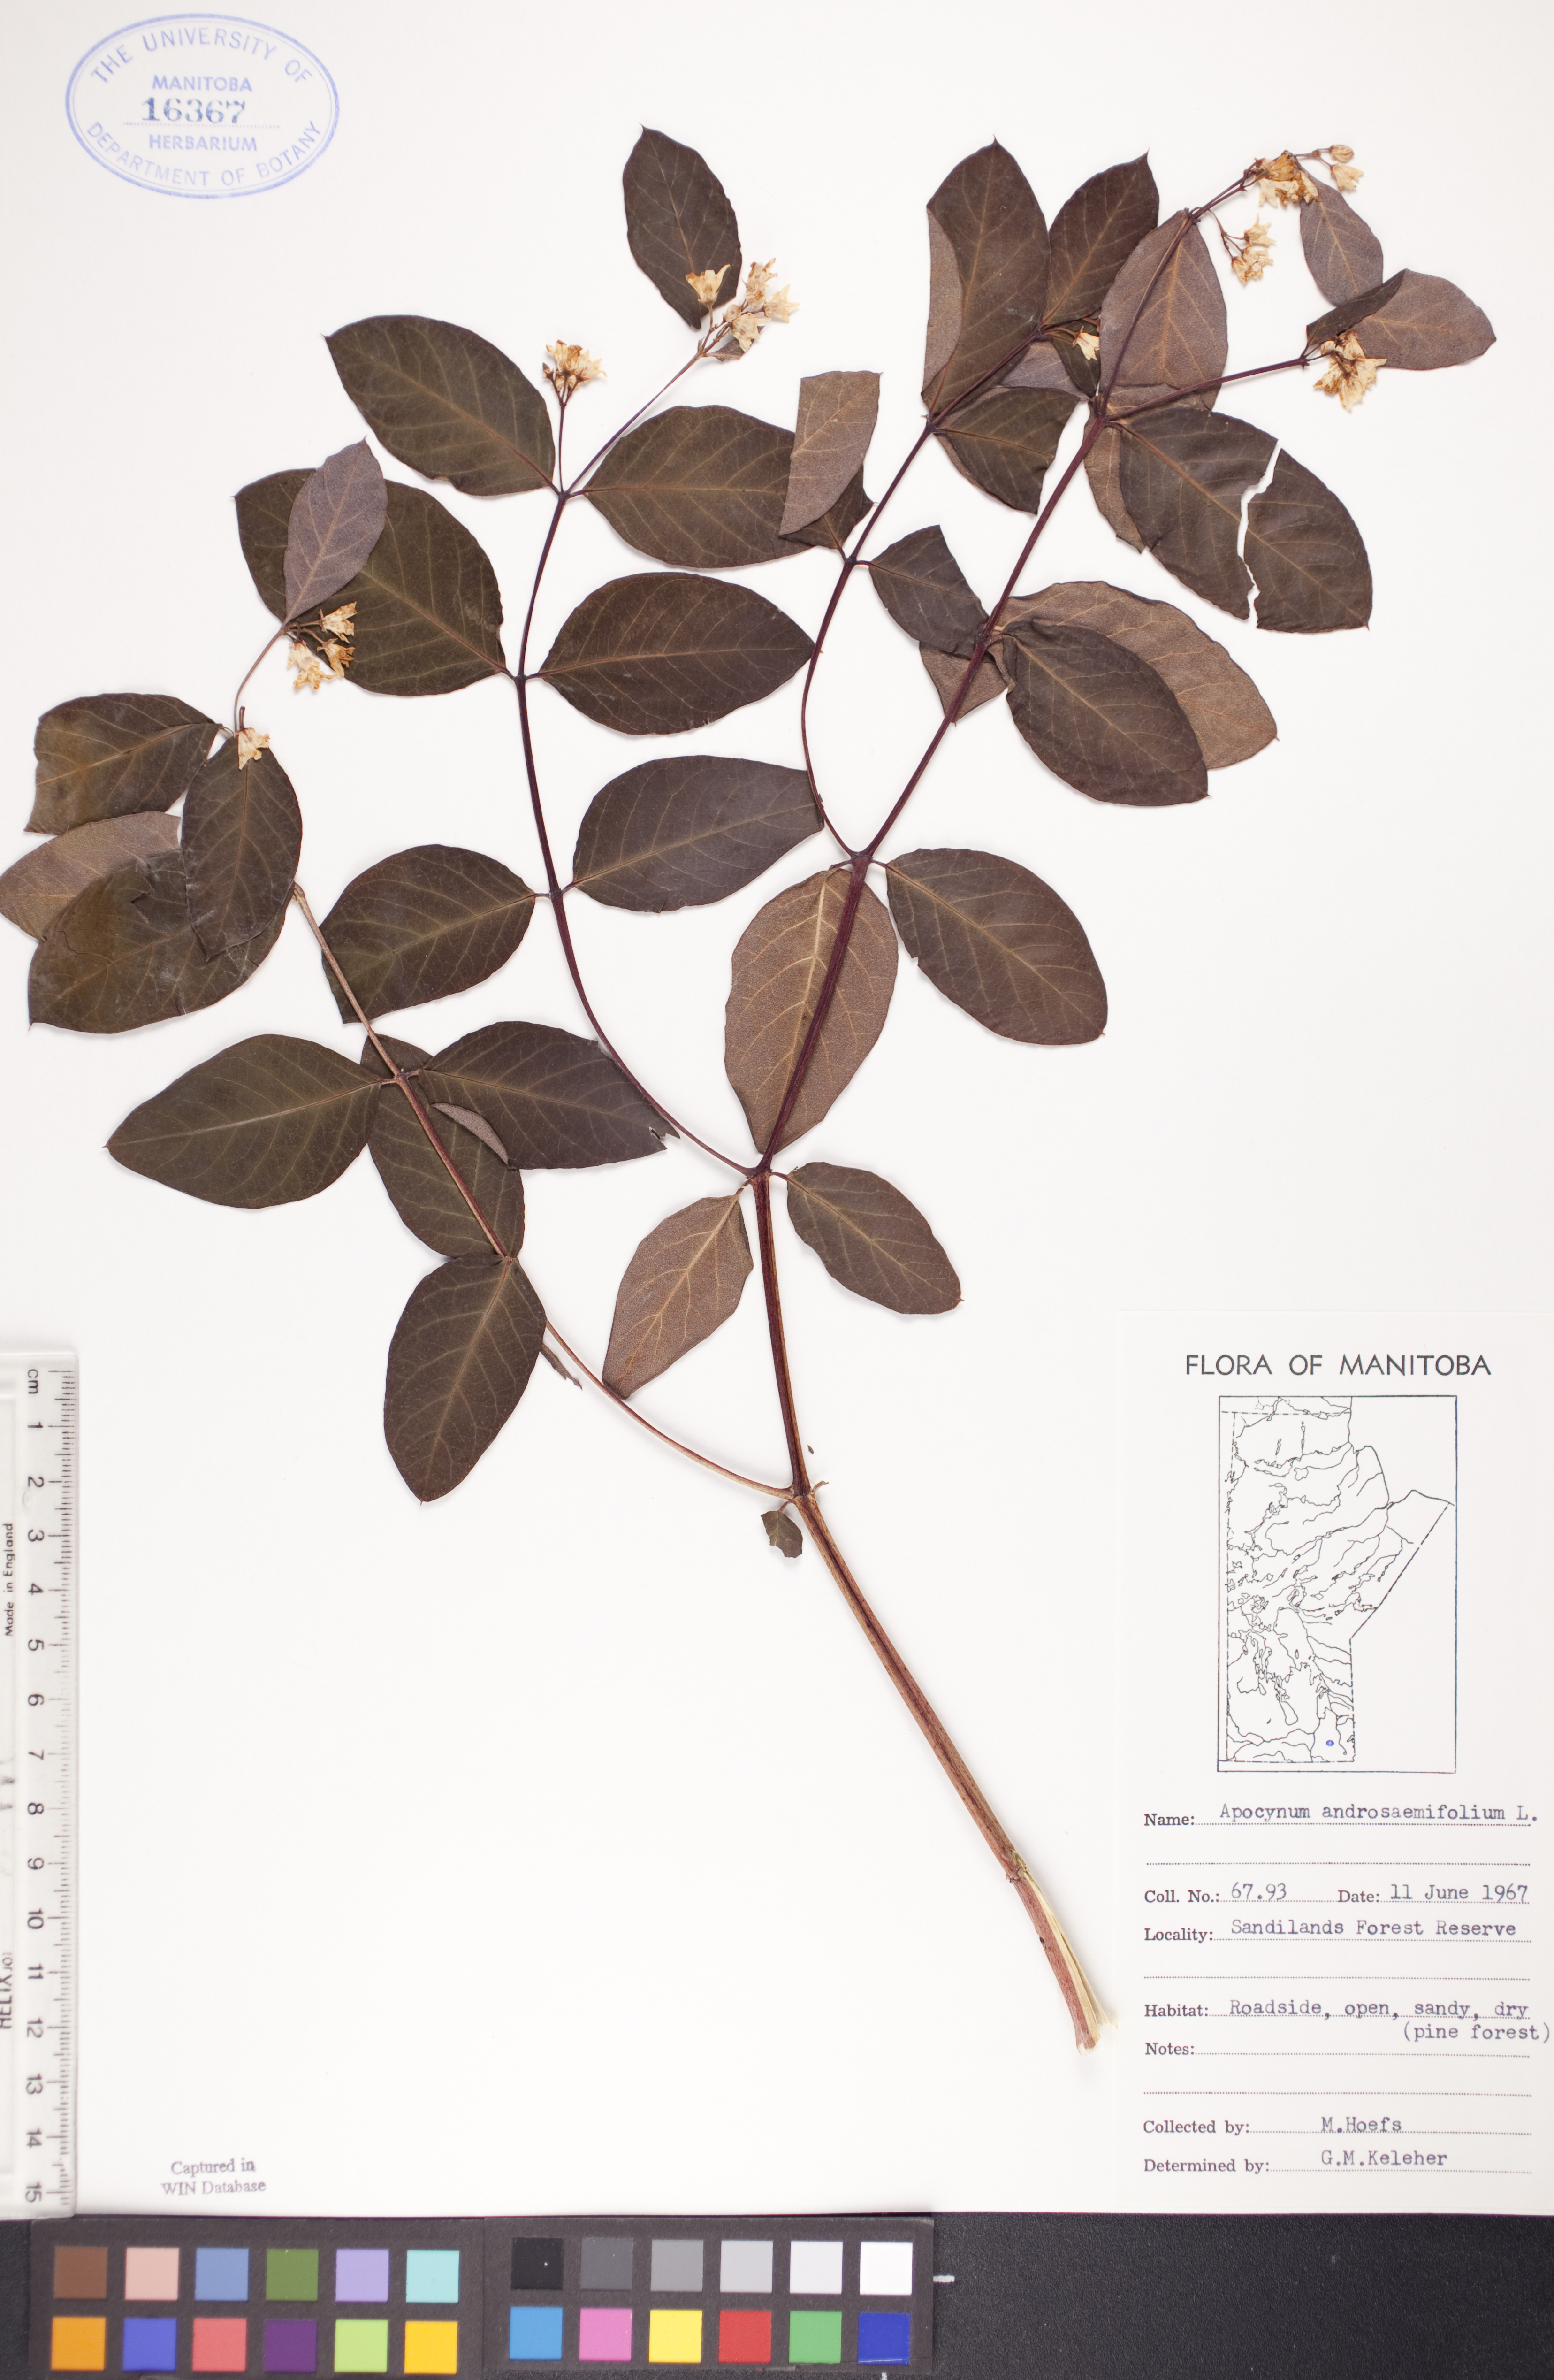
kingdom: Plantae
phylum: Tracheophyta
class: Magnoliopsida
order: Gentianales
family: Apocynaceae
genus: Apocynum
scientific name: Apocynum androsaemifolium
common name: Spreading dogbane
